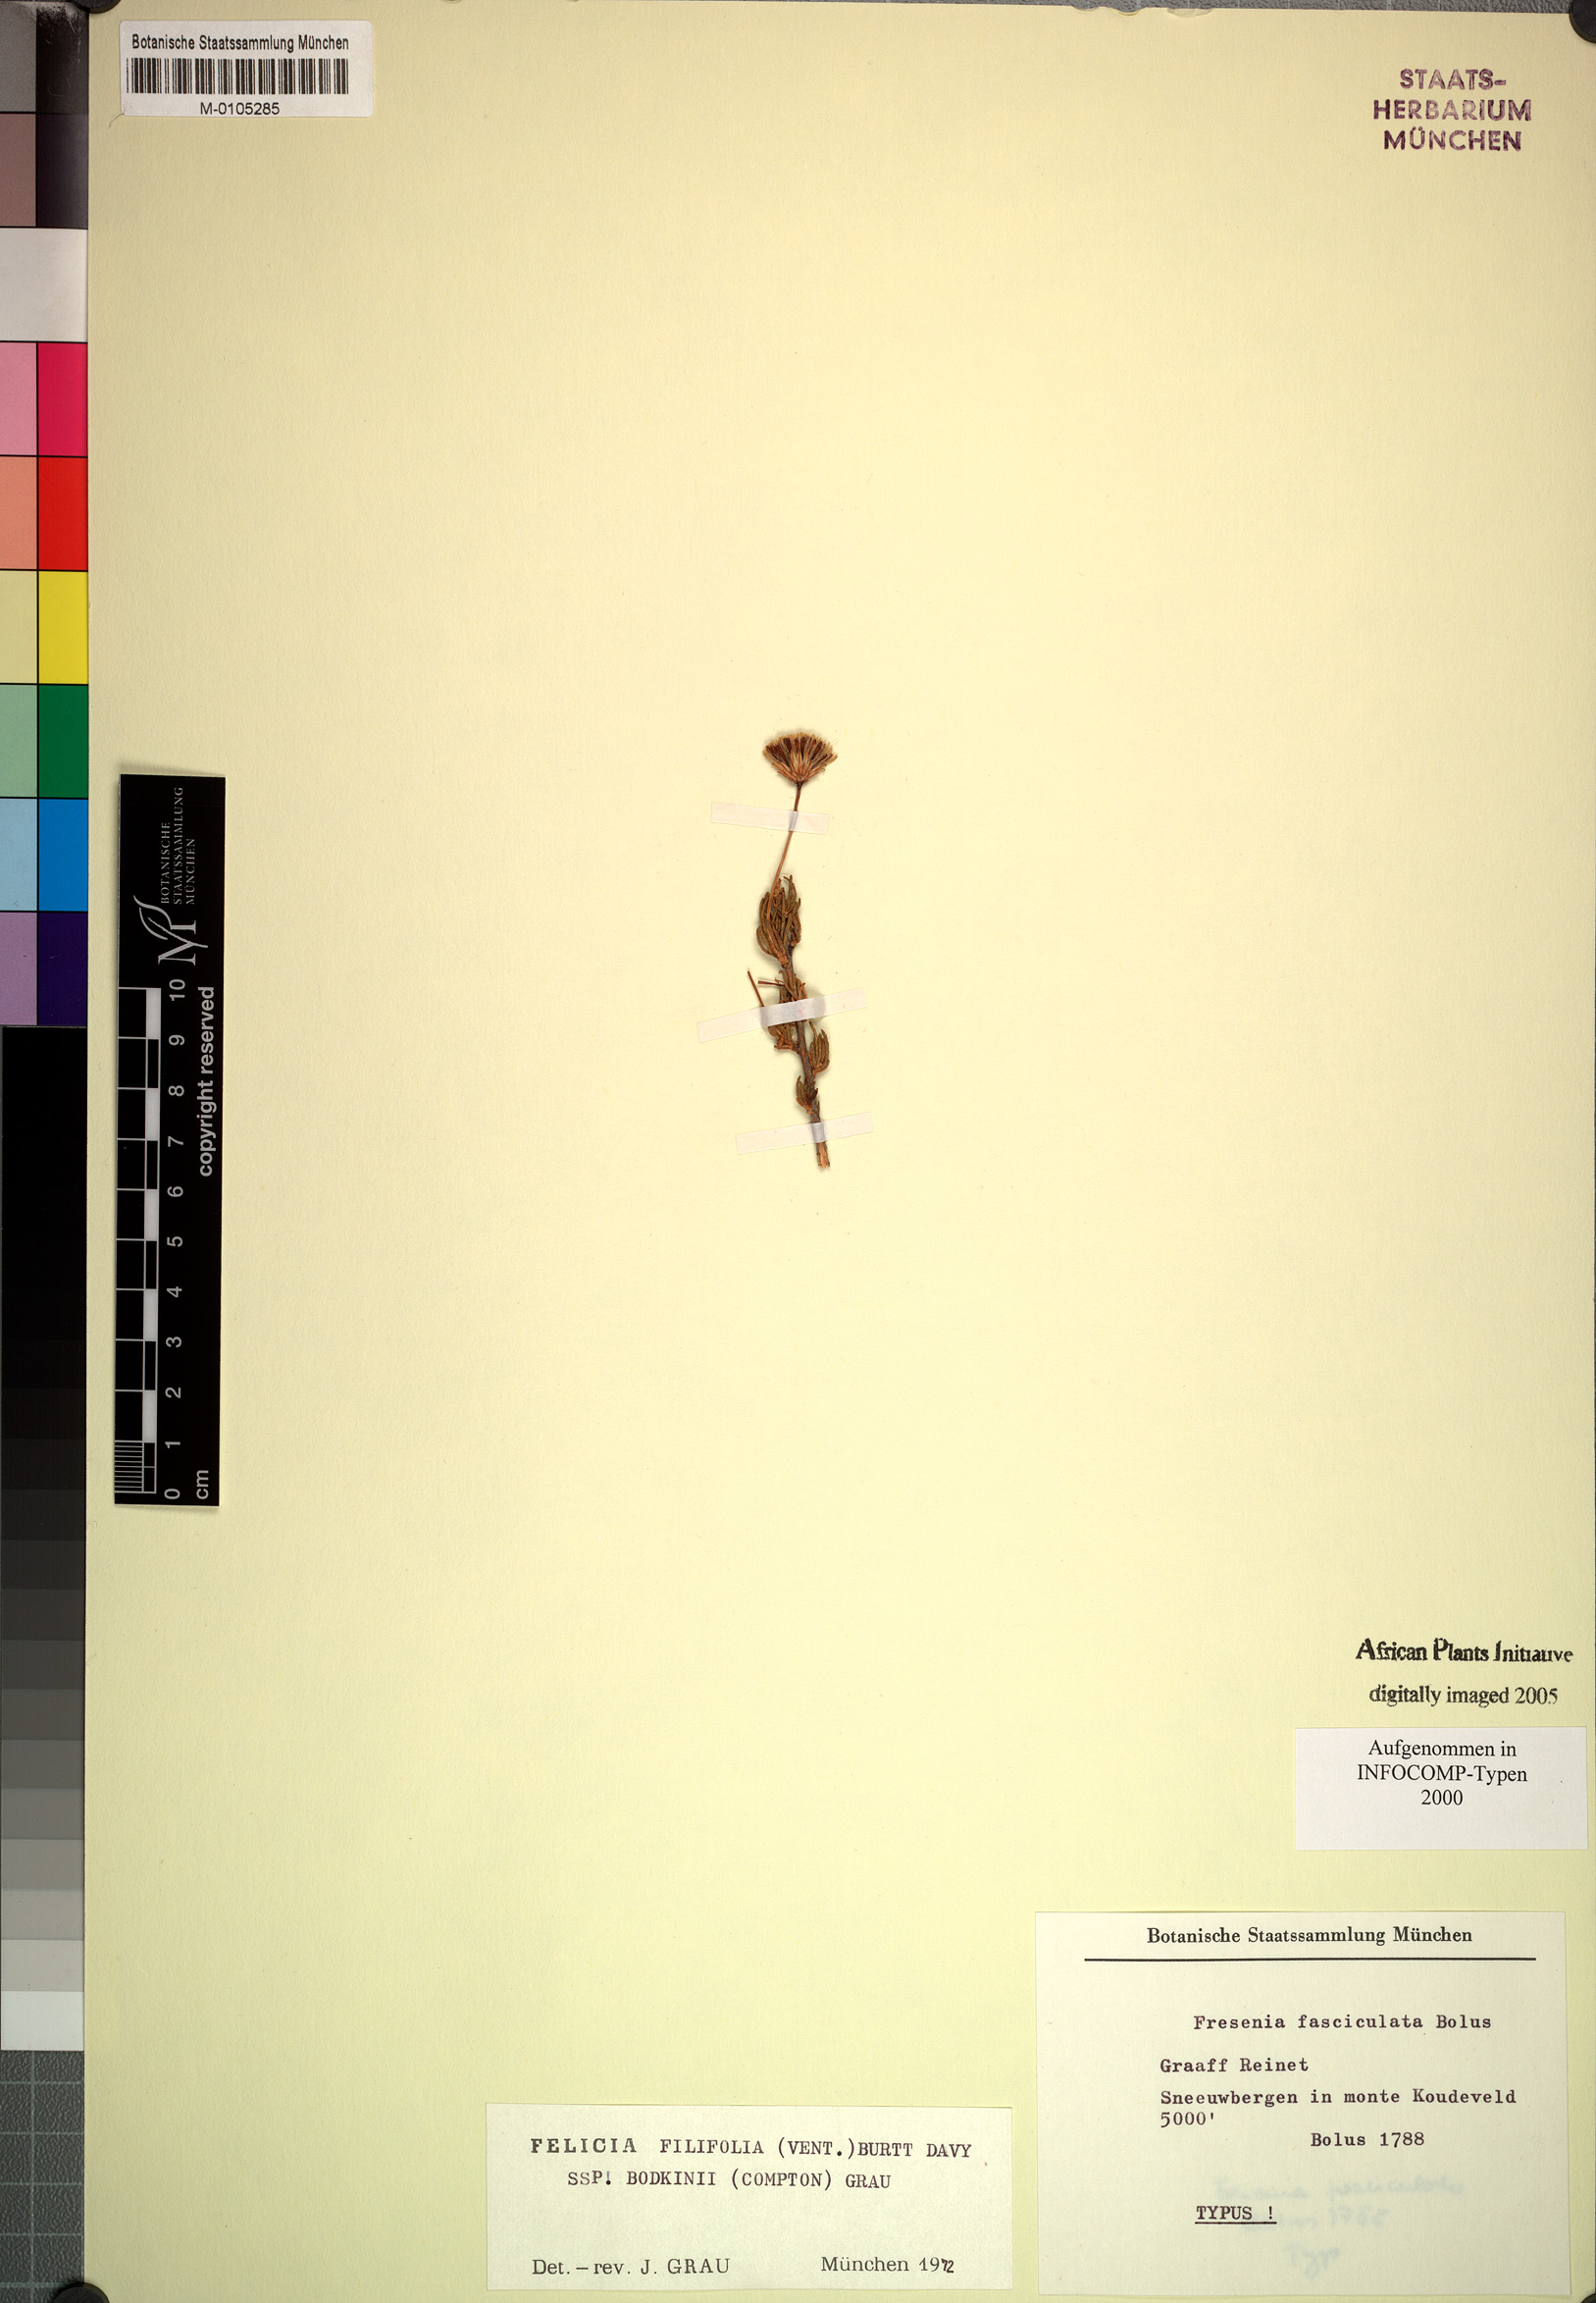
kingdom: Plantae
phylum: Tracheophyta
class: Magnoliopsida
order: Asterales
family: Asteraceae
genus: Felicia
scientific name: Felicia filifolia
